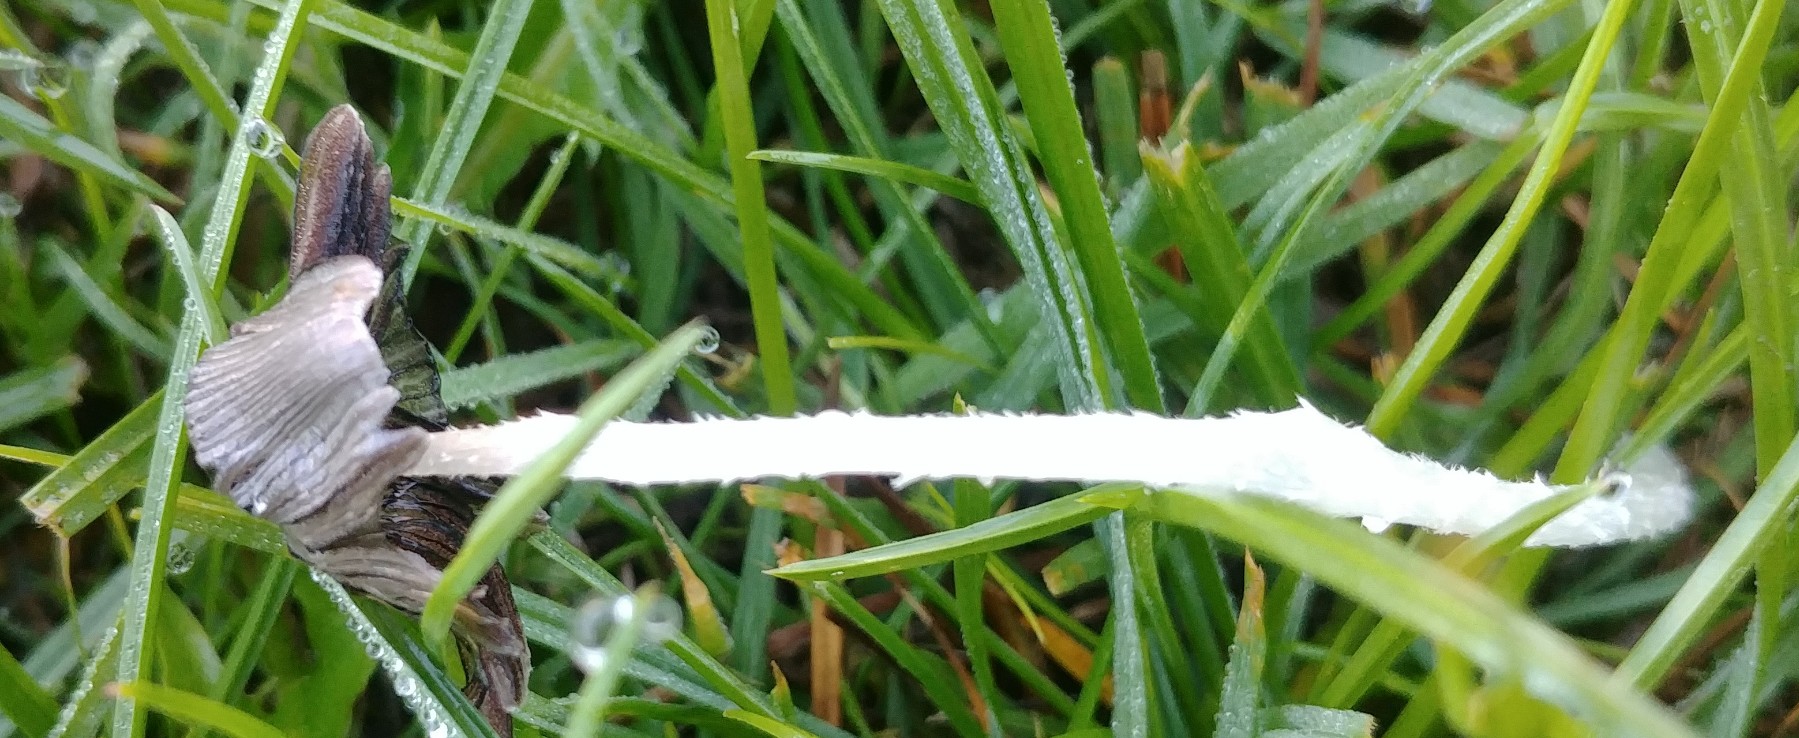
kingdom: Fungi
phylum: Basidiomycota
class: Agaricomycetes
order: Agaricales
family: Psathyrellaceae
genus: Coprinopsis
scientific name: Coprinopsis lagopus
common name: dunstokket blækhat
